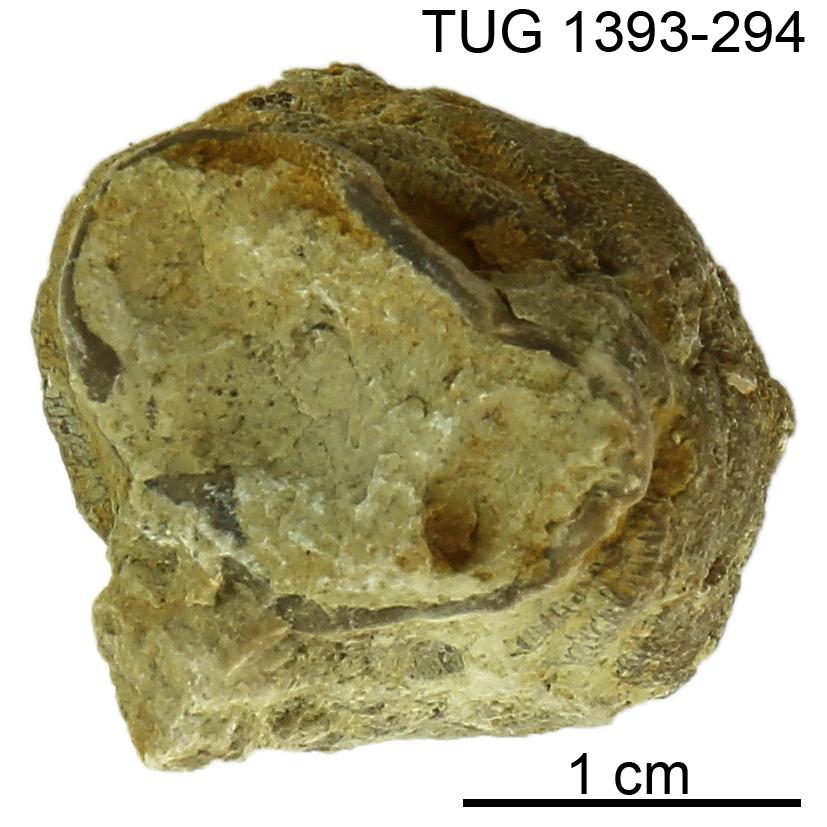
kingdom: Animalia
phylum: Bryozoa
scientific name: Bryozoa
